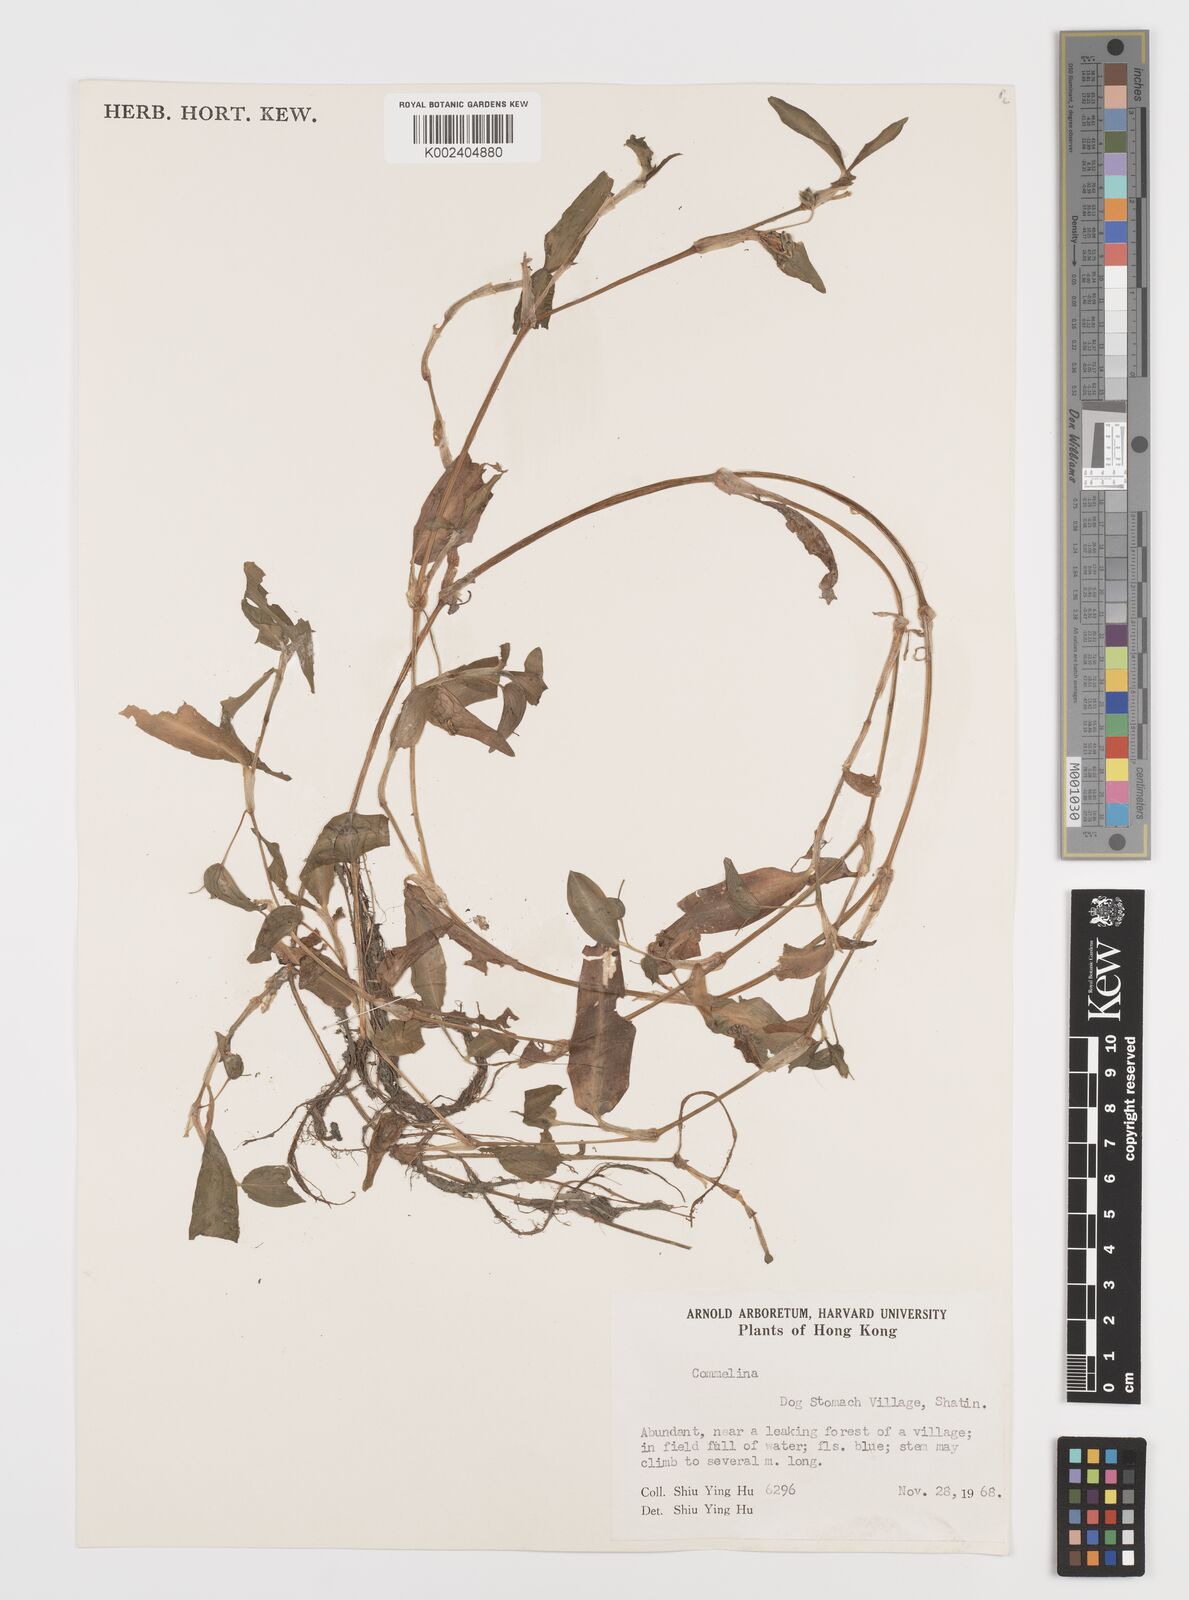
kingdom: Plantae
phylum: Tracheophyta
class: Liliopsida
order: Commelinales
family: Commelinaceae
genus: Commelina
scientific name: Commelina
